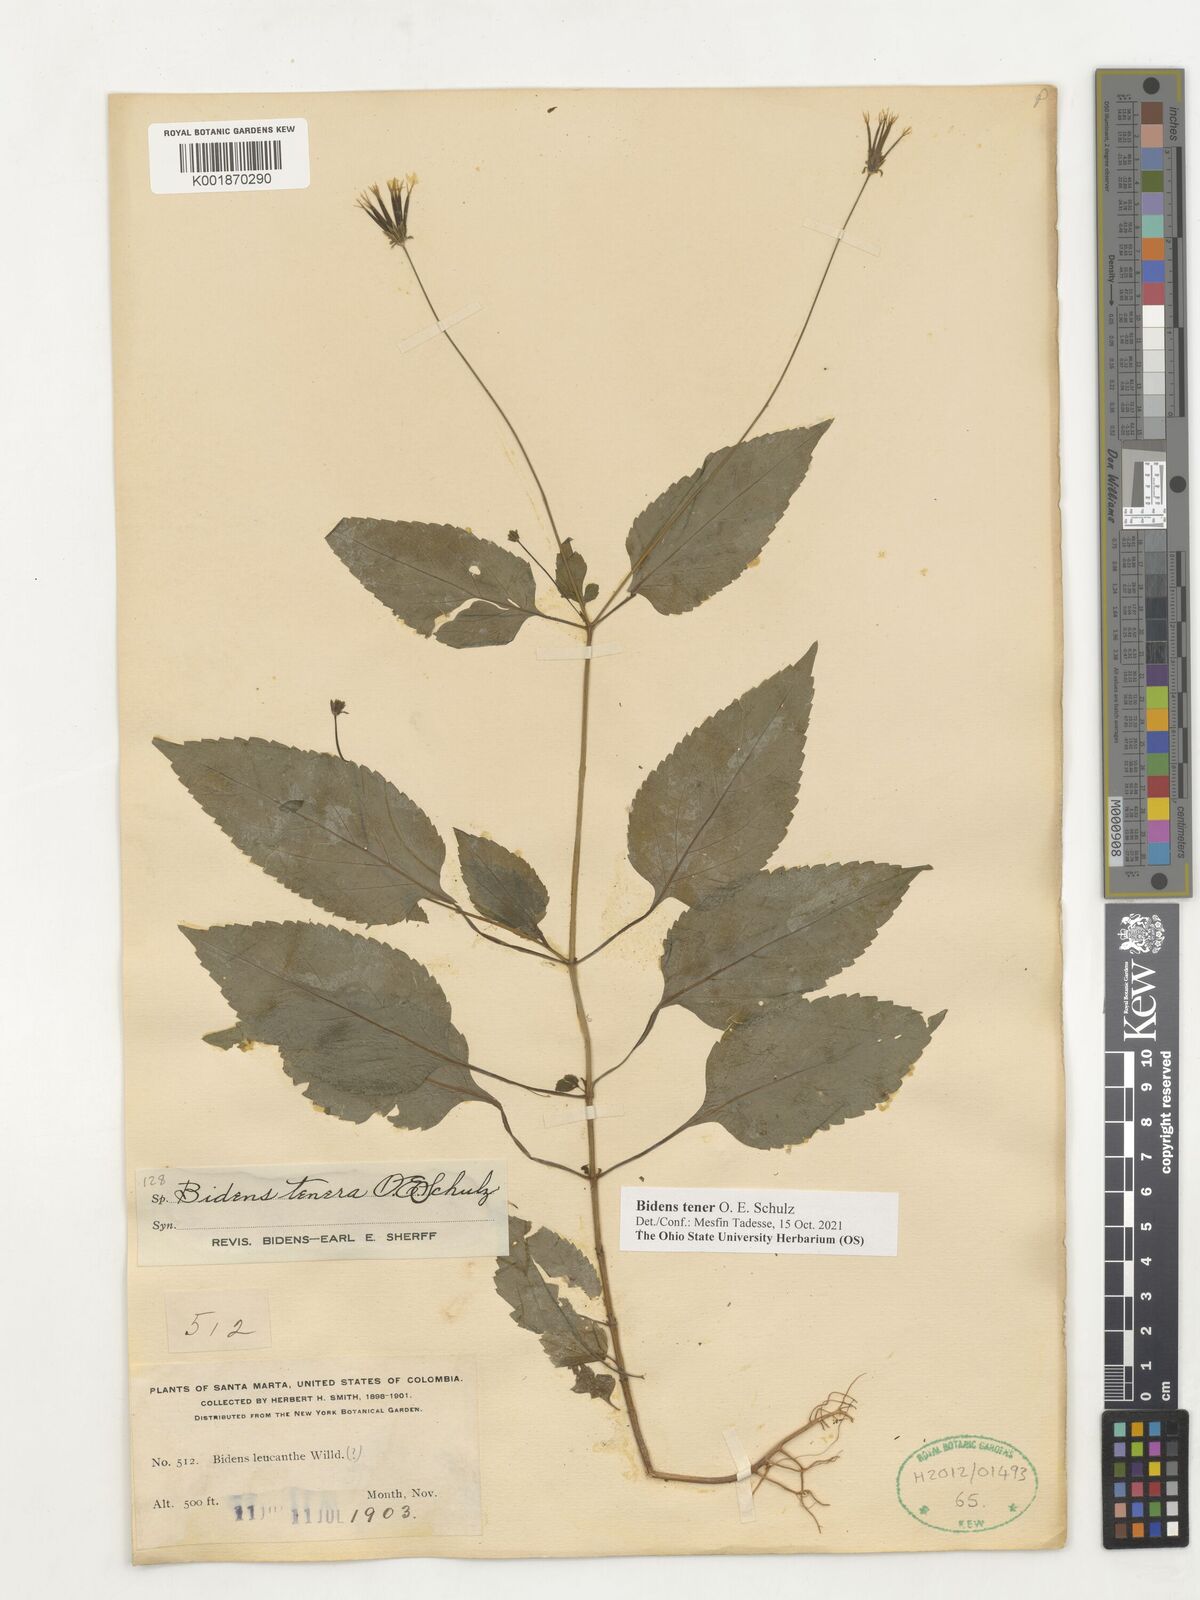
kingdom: Plantae
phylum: Tracheophyta
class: Magnoliopsida
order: Asterales
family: Asteraceae
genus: Bidens
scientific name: Bidens tenera
